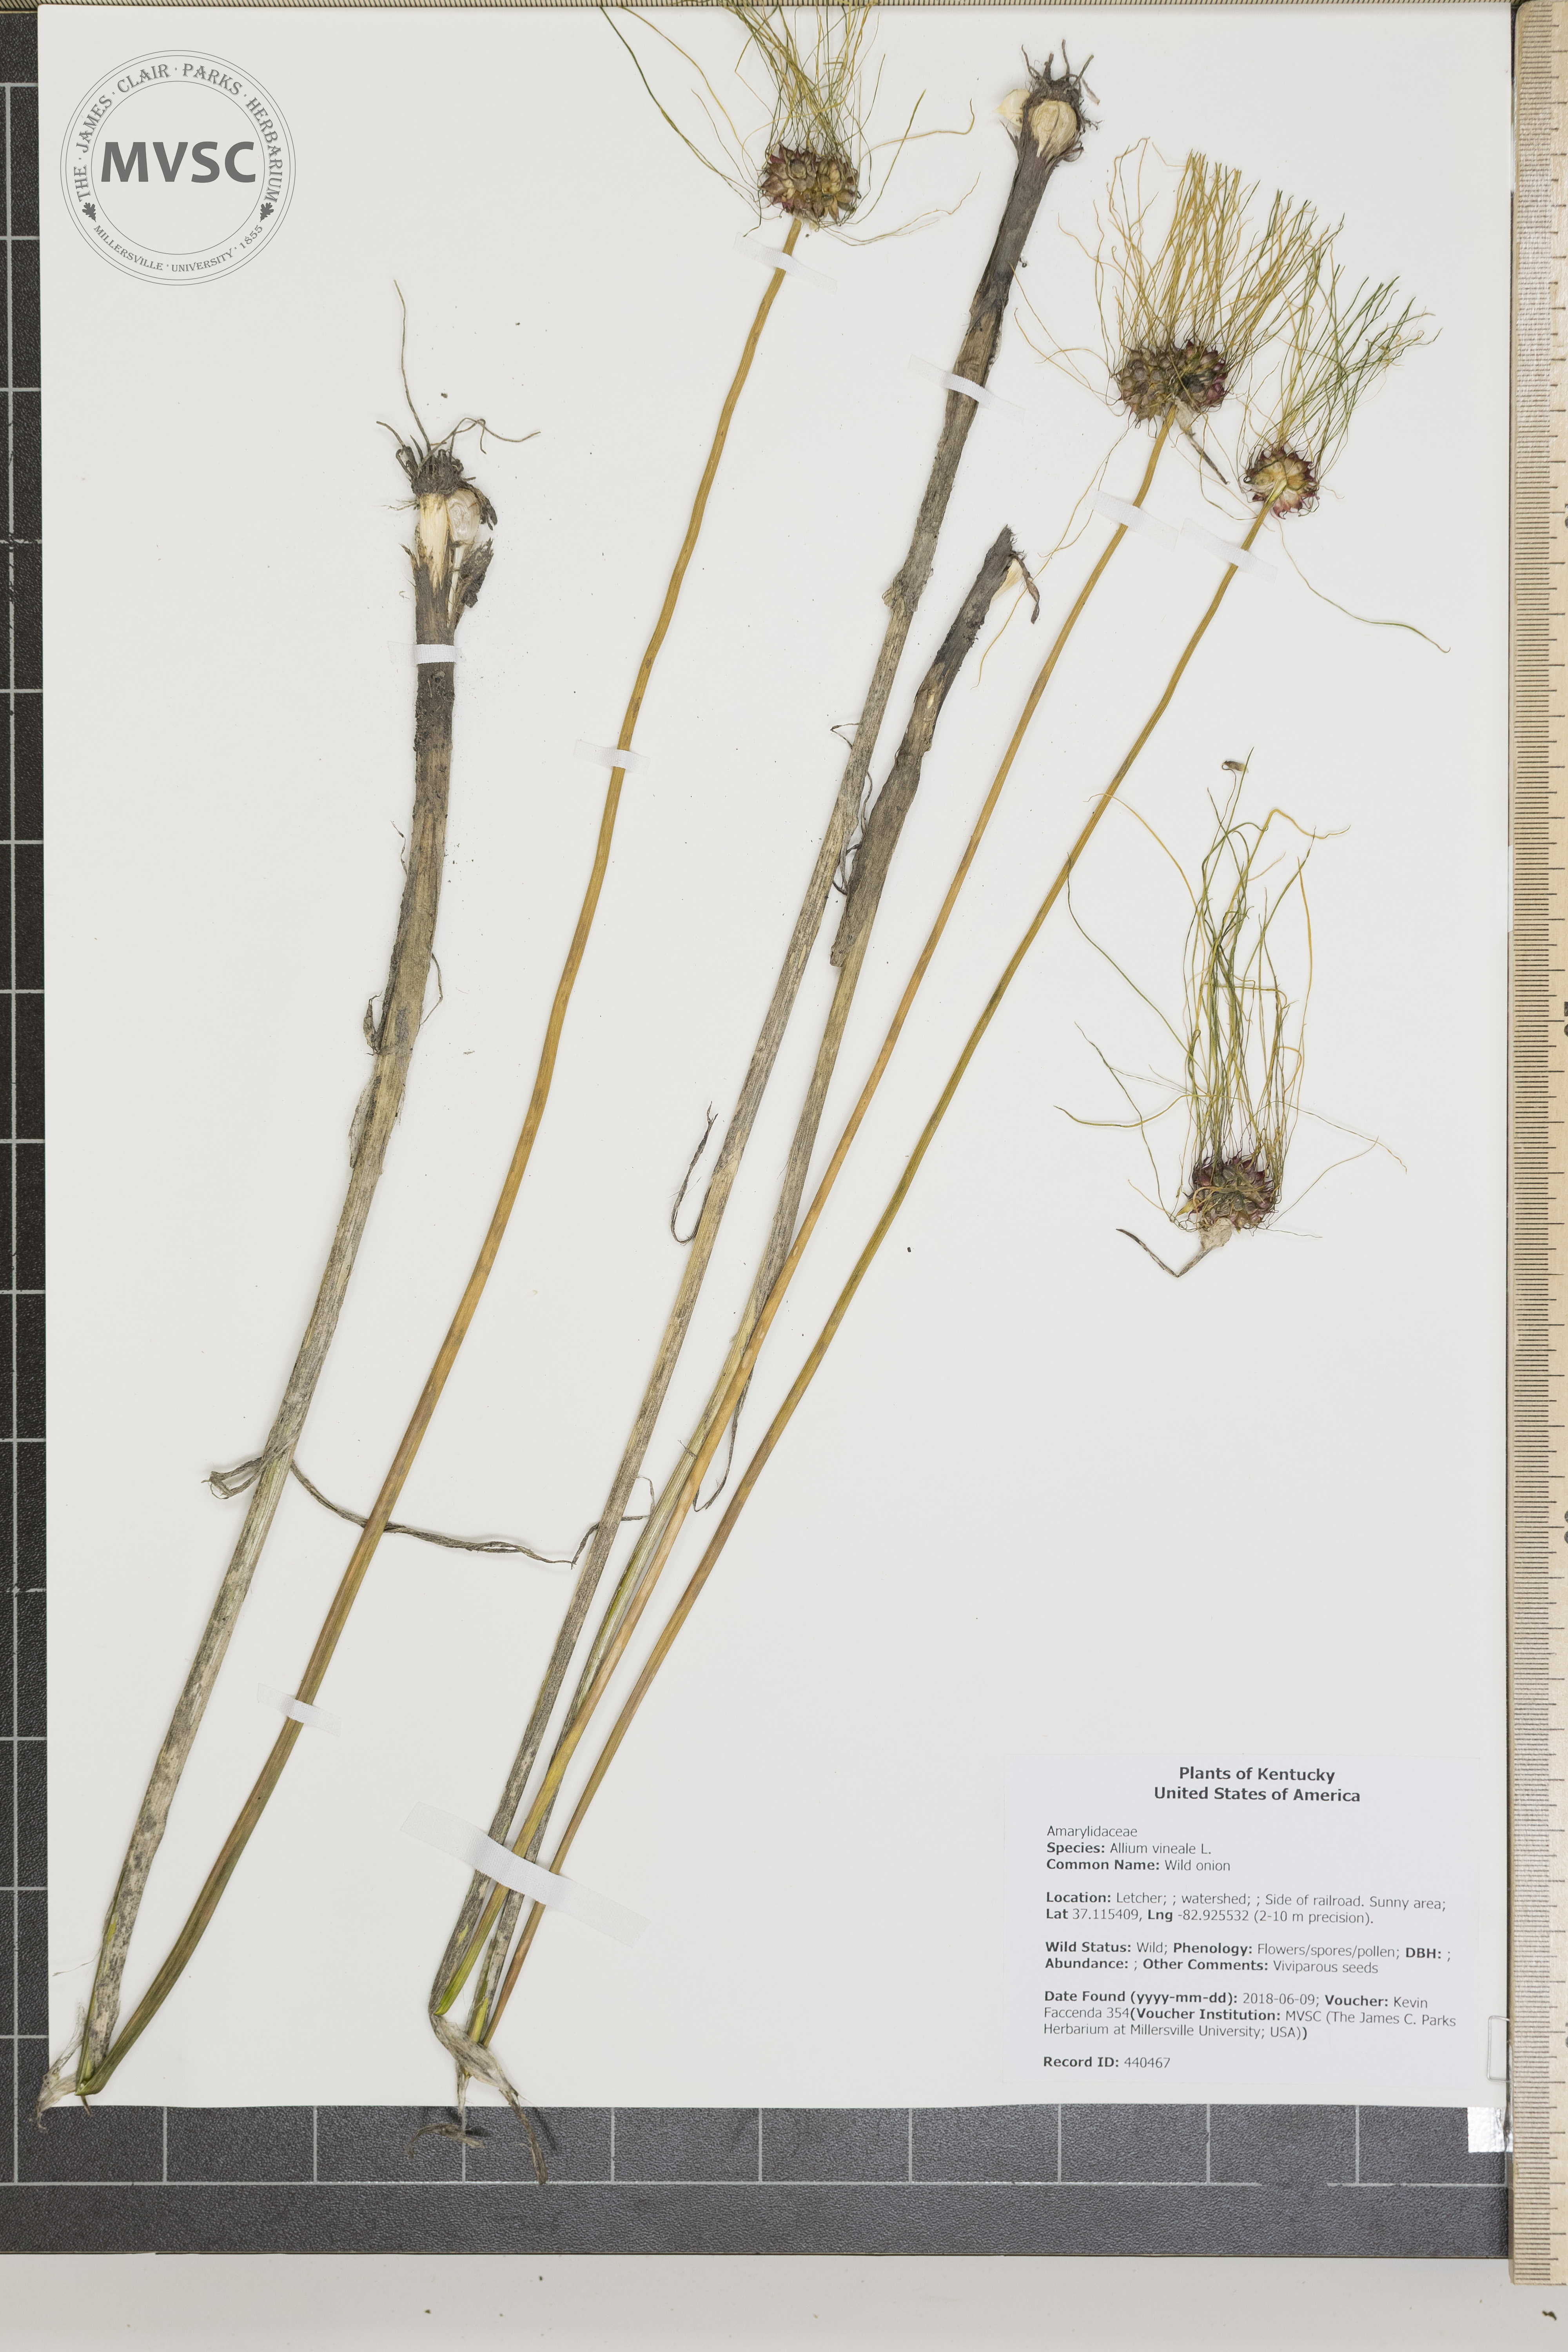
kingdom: Plantae
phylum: Tracheophyta
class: Liliopsida
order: Asparagales
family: Amaryllidaceae
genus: Allium
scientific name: Allium vineale
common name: Wild onion
